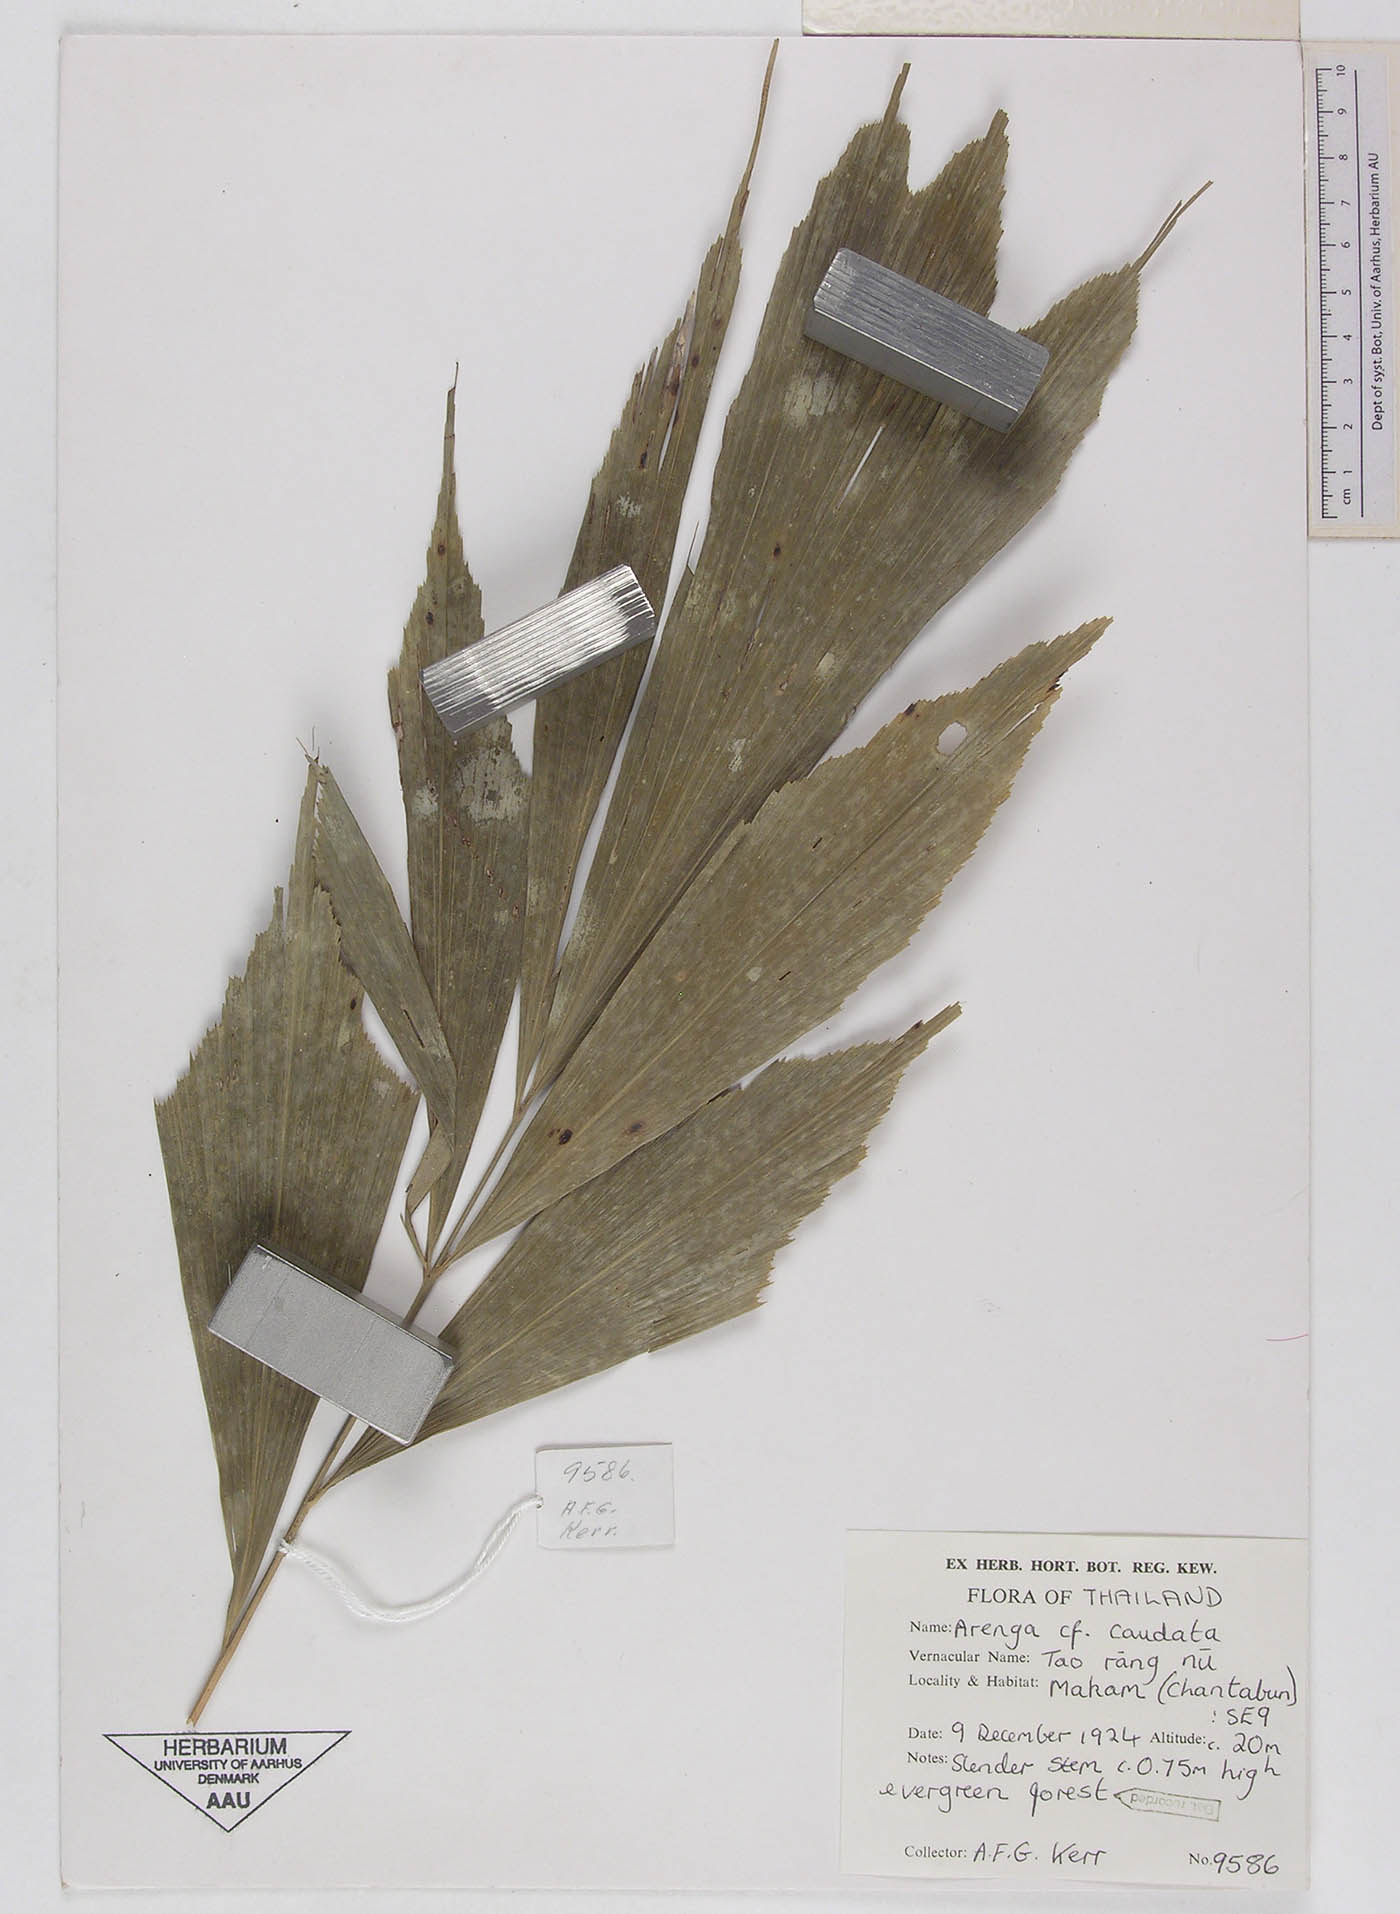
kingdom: Plantae
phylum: Tracheophyta
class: Liliopsida
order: Arecales
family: Arecaceae
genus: Arenga
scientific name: Arenga caudata
